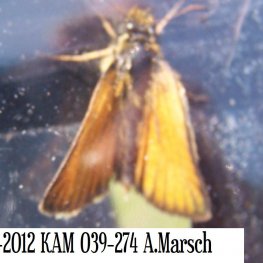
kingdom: Animalia
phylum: Arthropoda
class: Insecta
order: Lepidoptera
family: Hesperiidae
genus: Thymelicus
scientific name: Thymelicus lineola
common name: European Skipper
